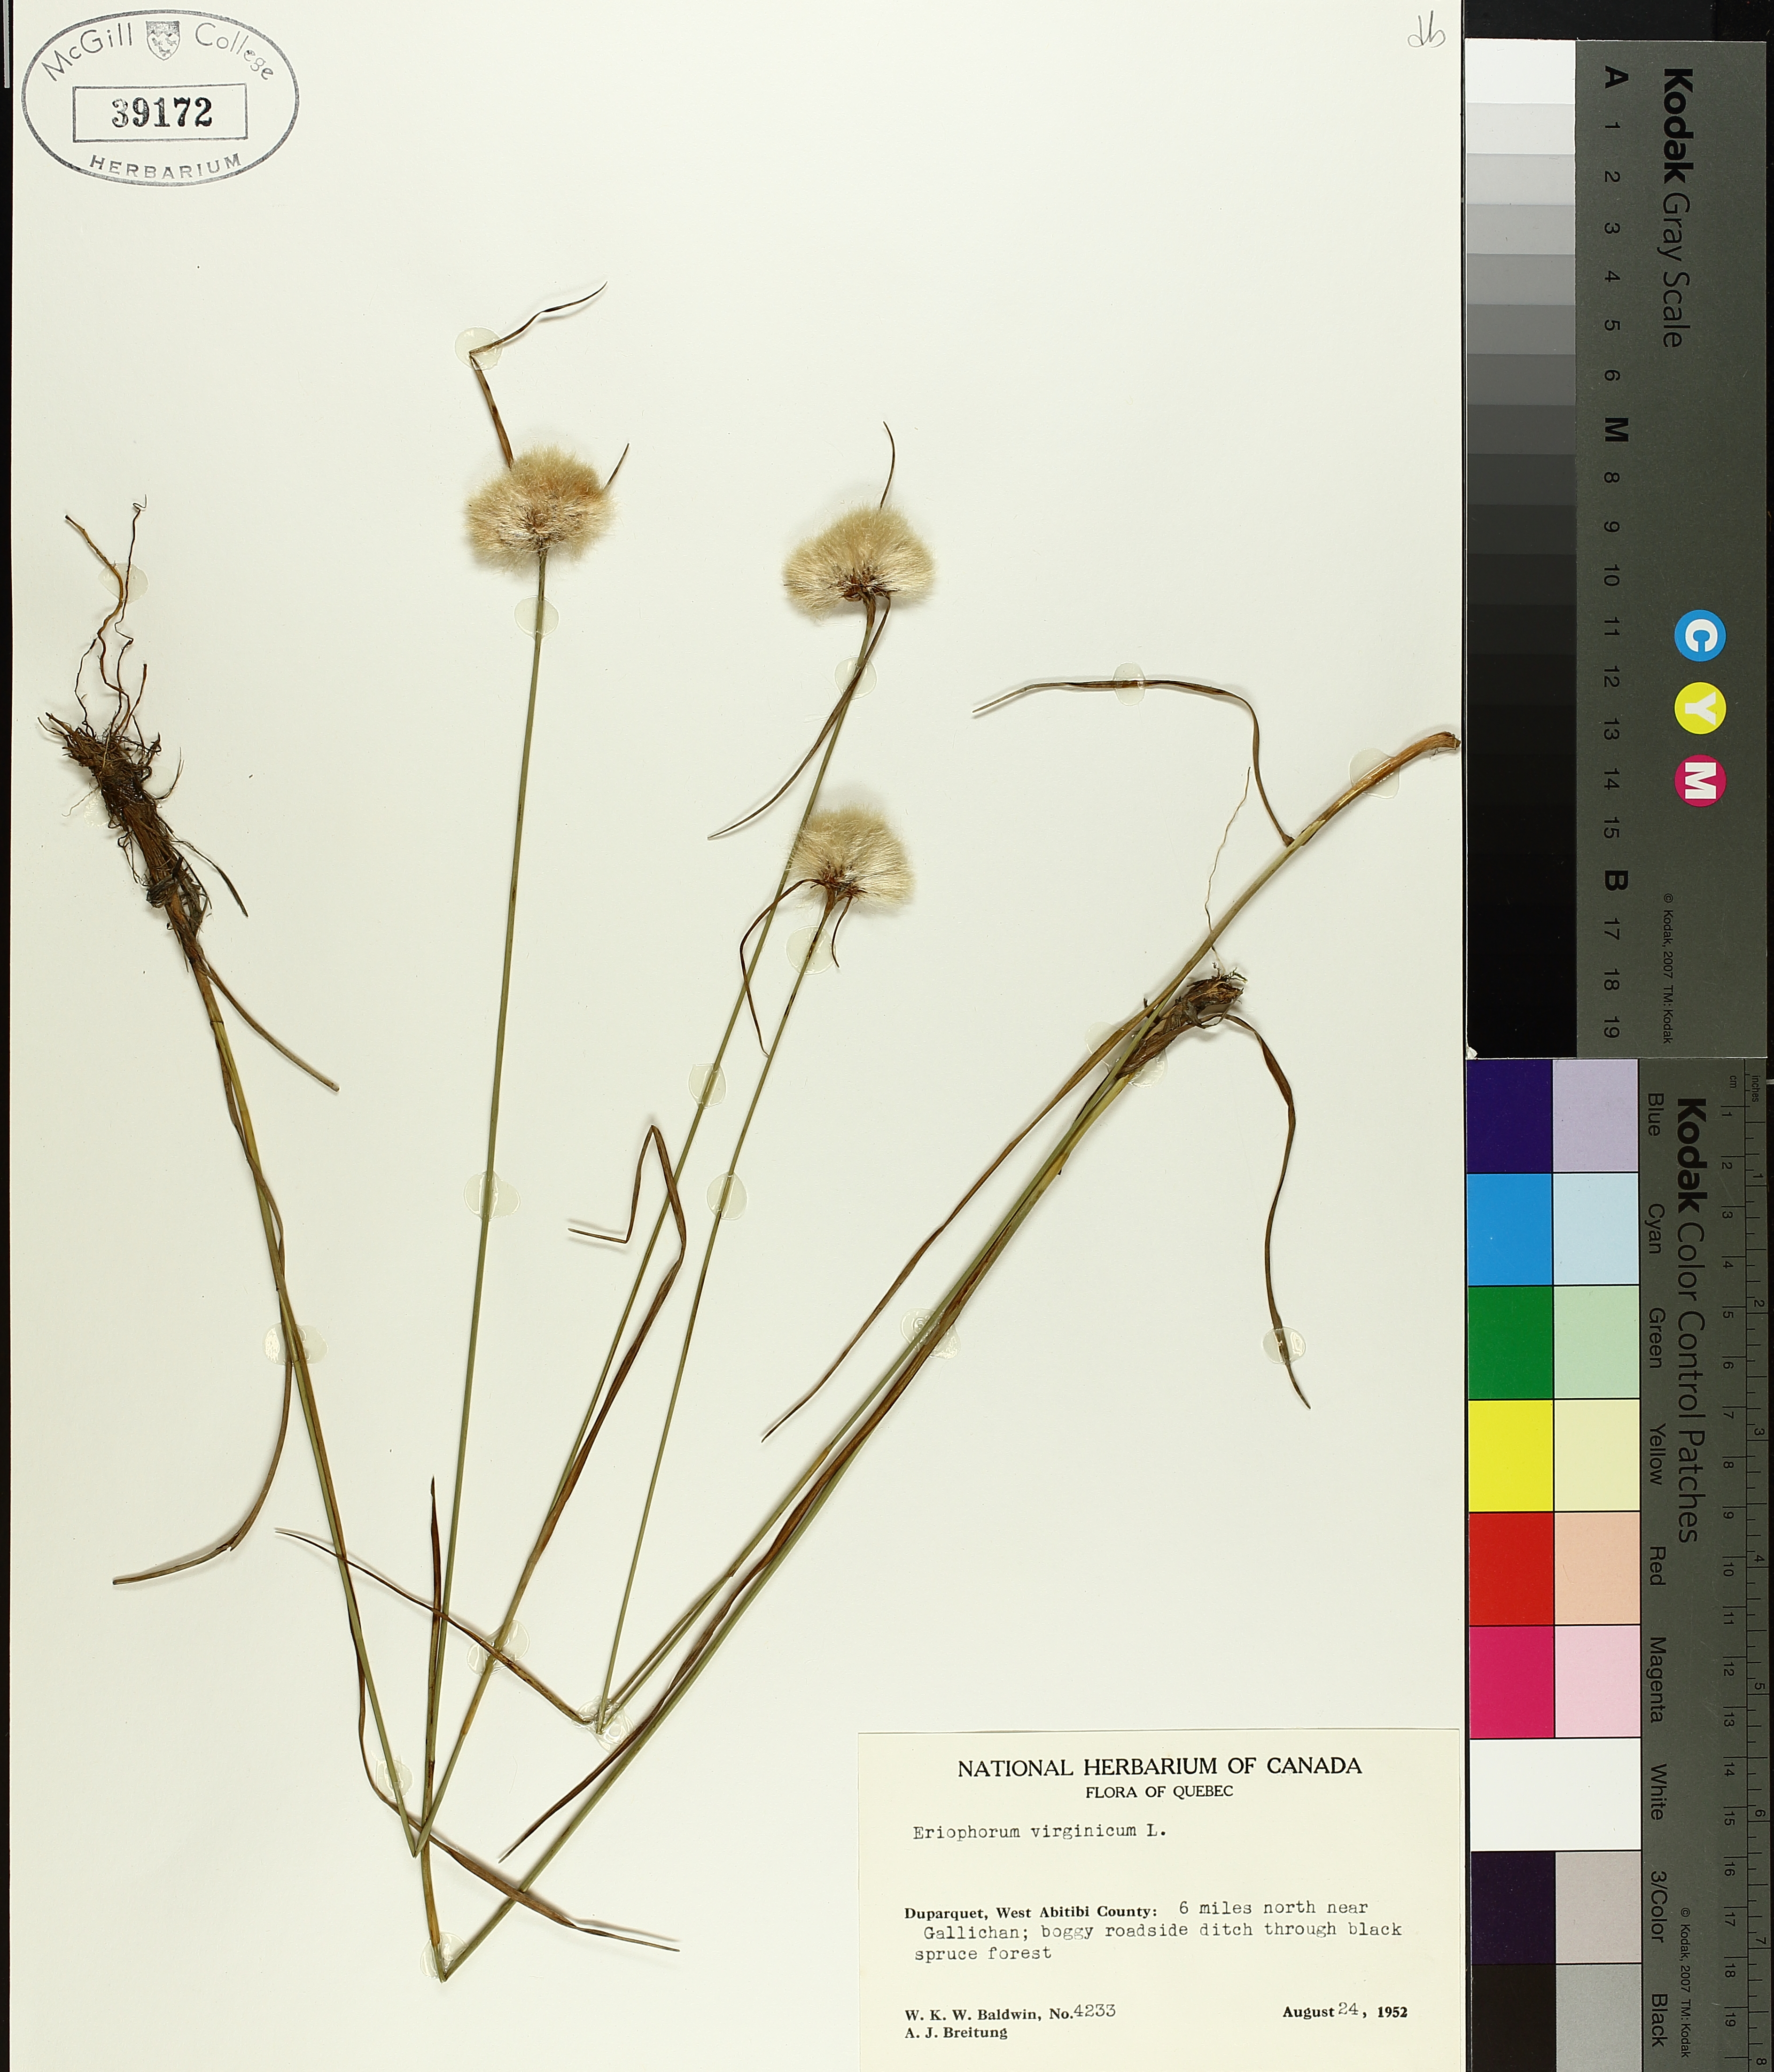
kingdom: Plantae
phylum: Tracheophyta
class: Liliopsida
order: Poales
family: Cyperaceae
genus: Eriophorum
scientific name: Eriophorum virginicum
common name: Tawny cottongrass
